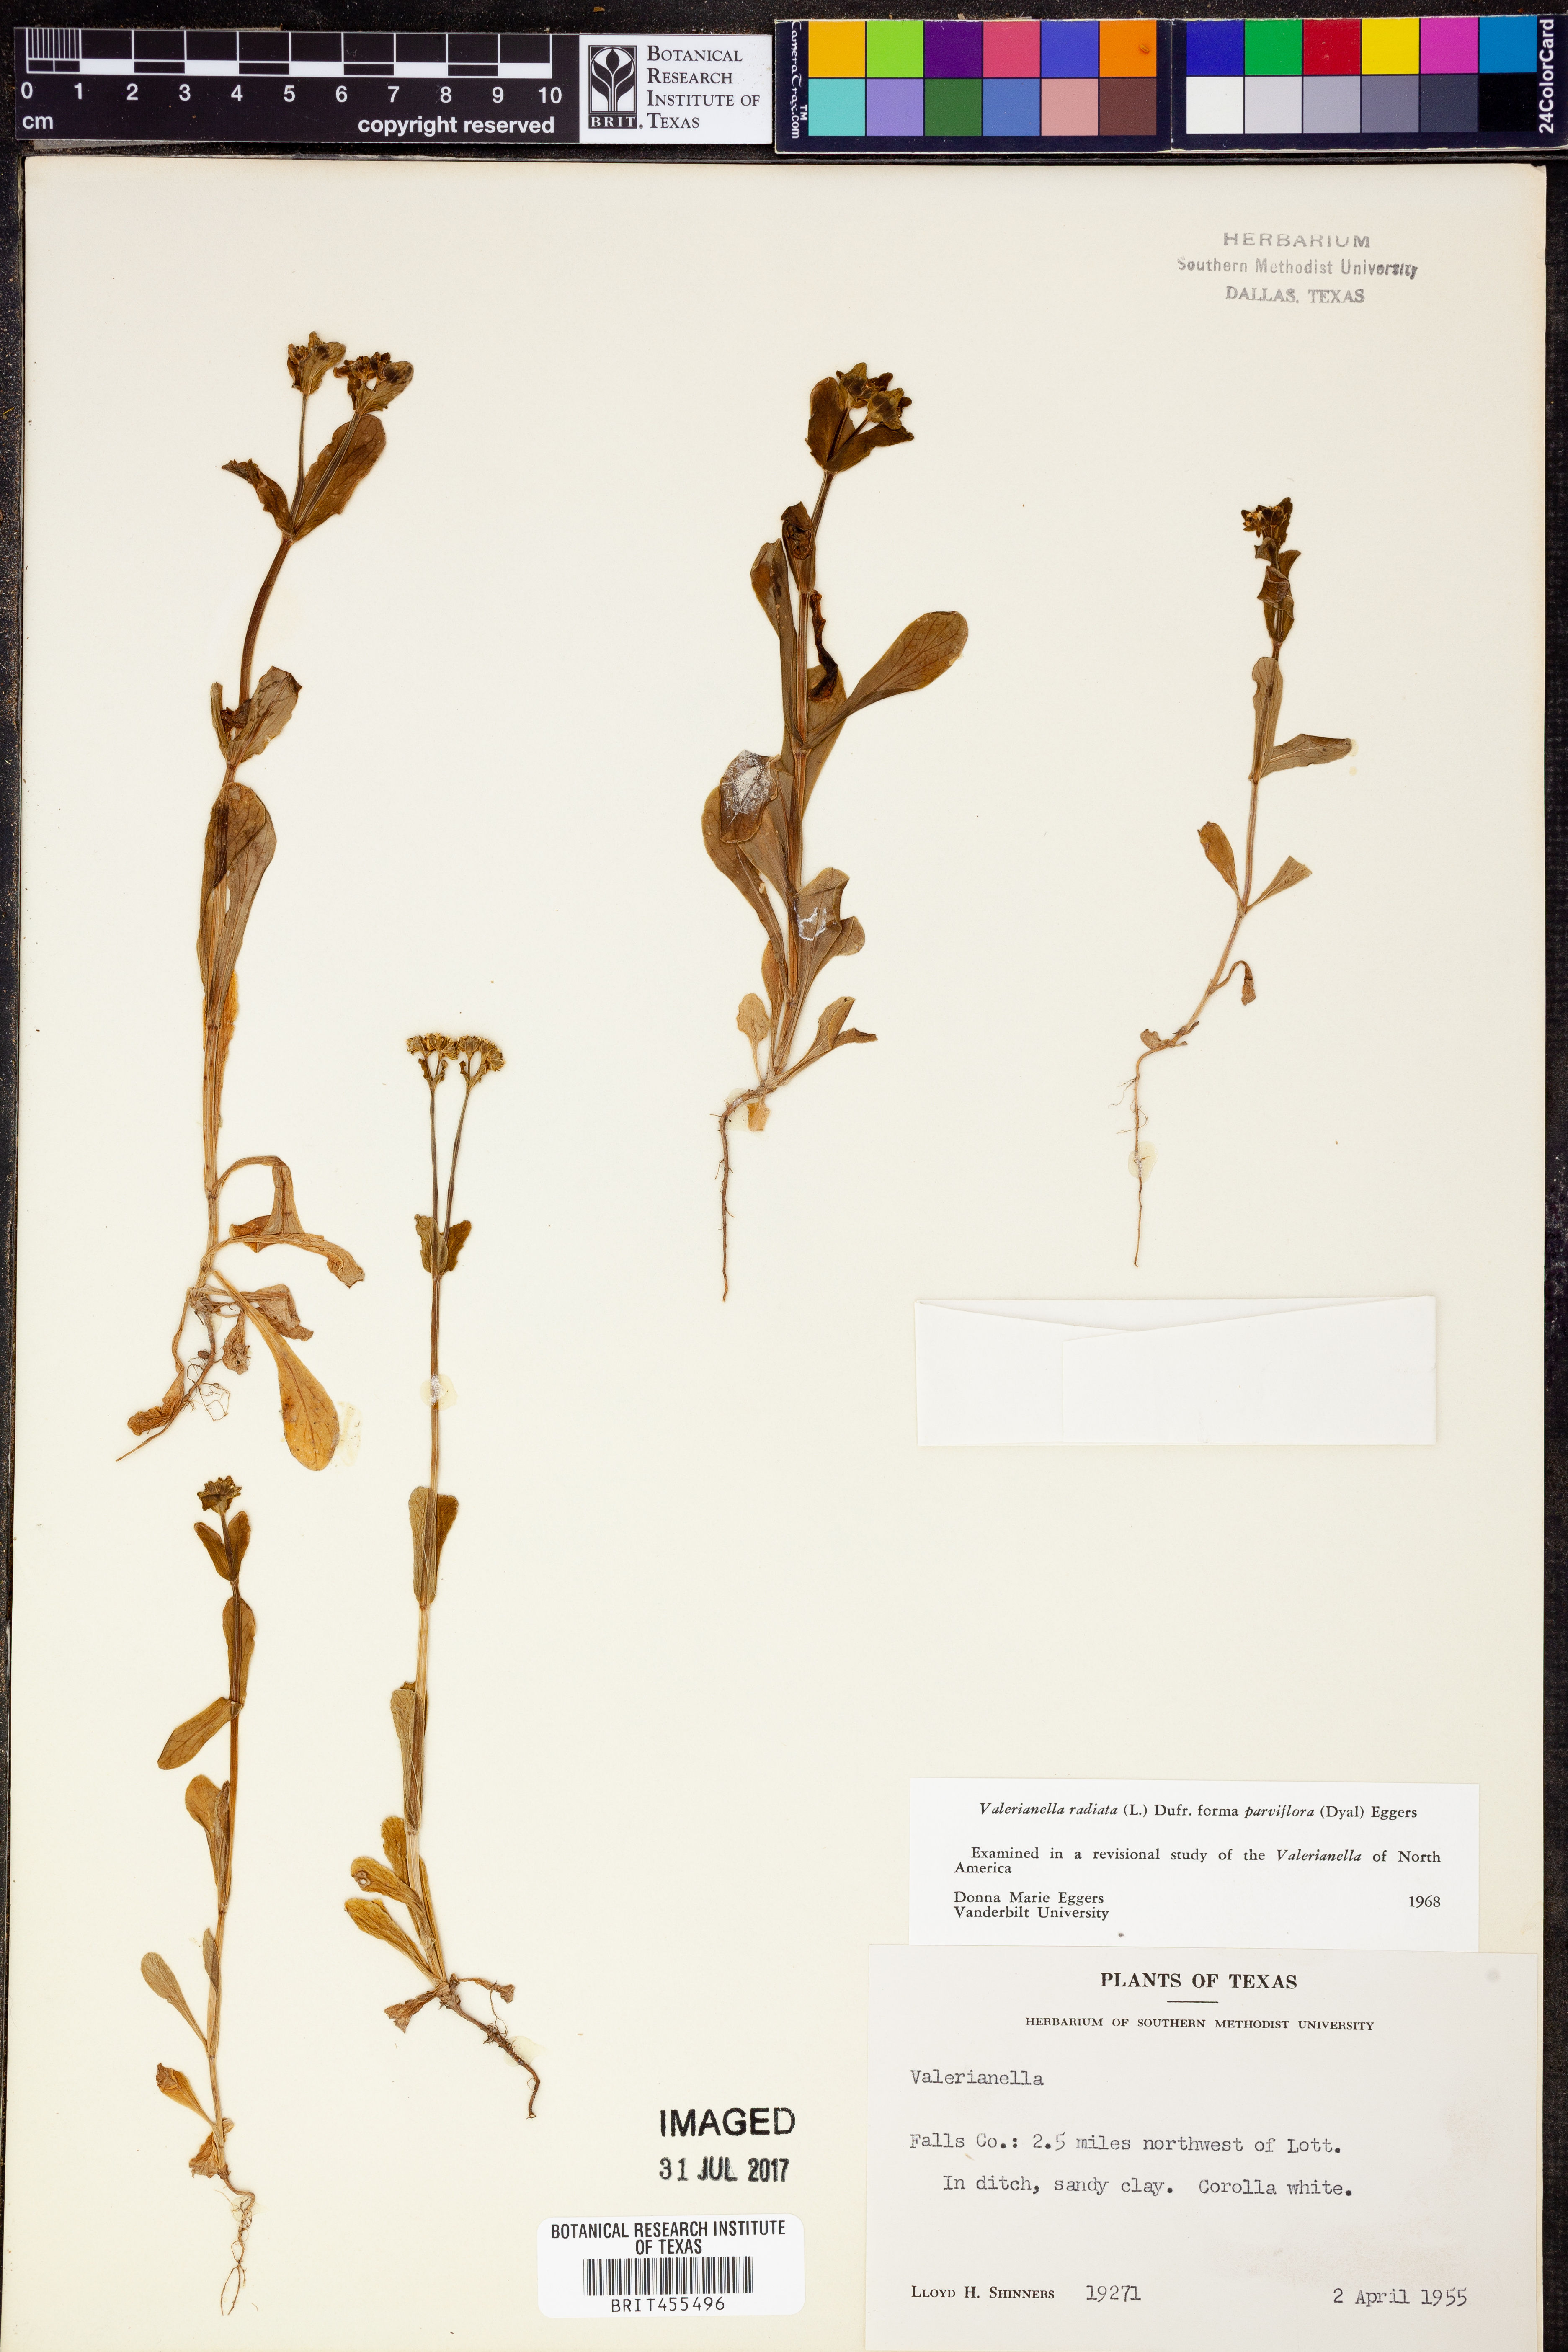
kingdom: Plantae
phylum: Tracheophyta
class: Magnoliopsida
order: Dipsacales
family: Caprifoliaceae
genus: Valerianella
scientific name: Valerianella radiata
